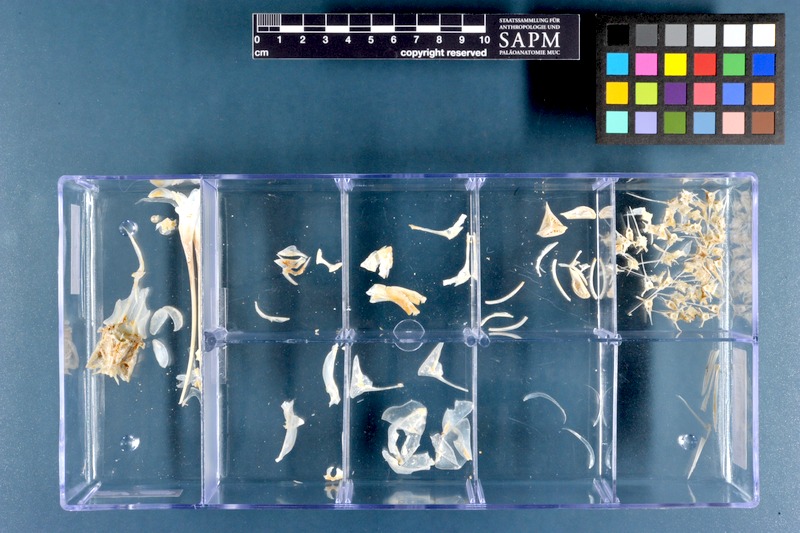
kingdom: Animalia
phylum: Chordata
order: Beloniformes
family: Hemiramphidae
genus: Hemiramphus
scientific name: Hemiramphus far
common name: Black-barred halfbeak
